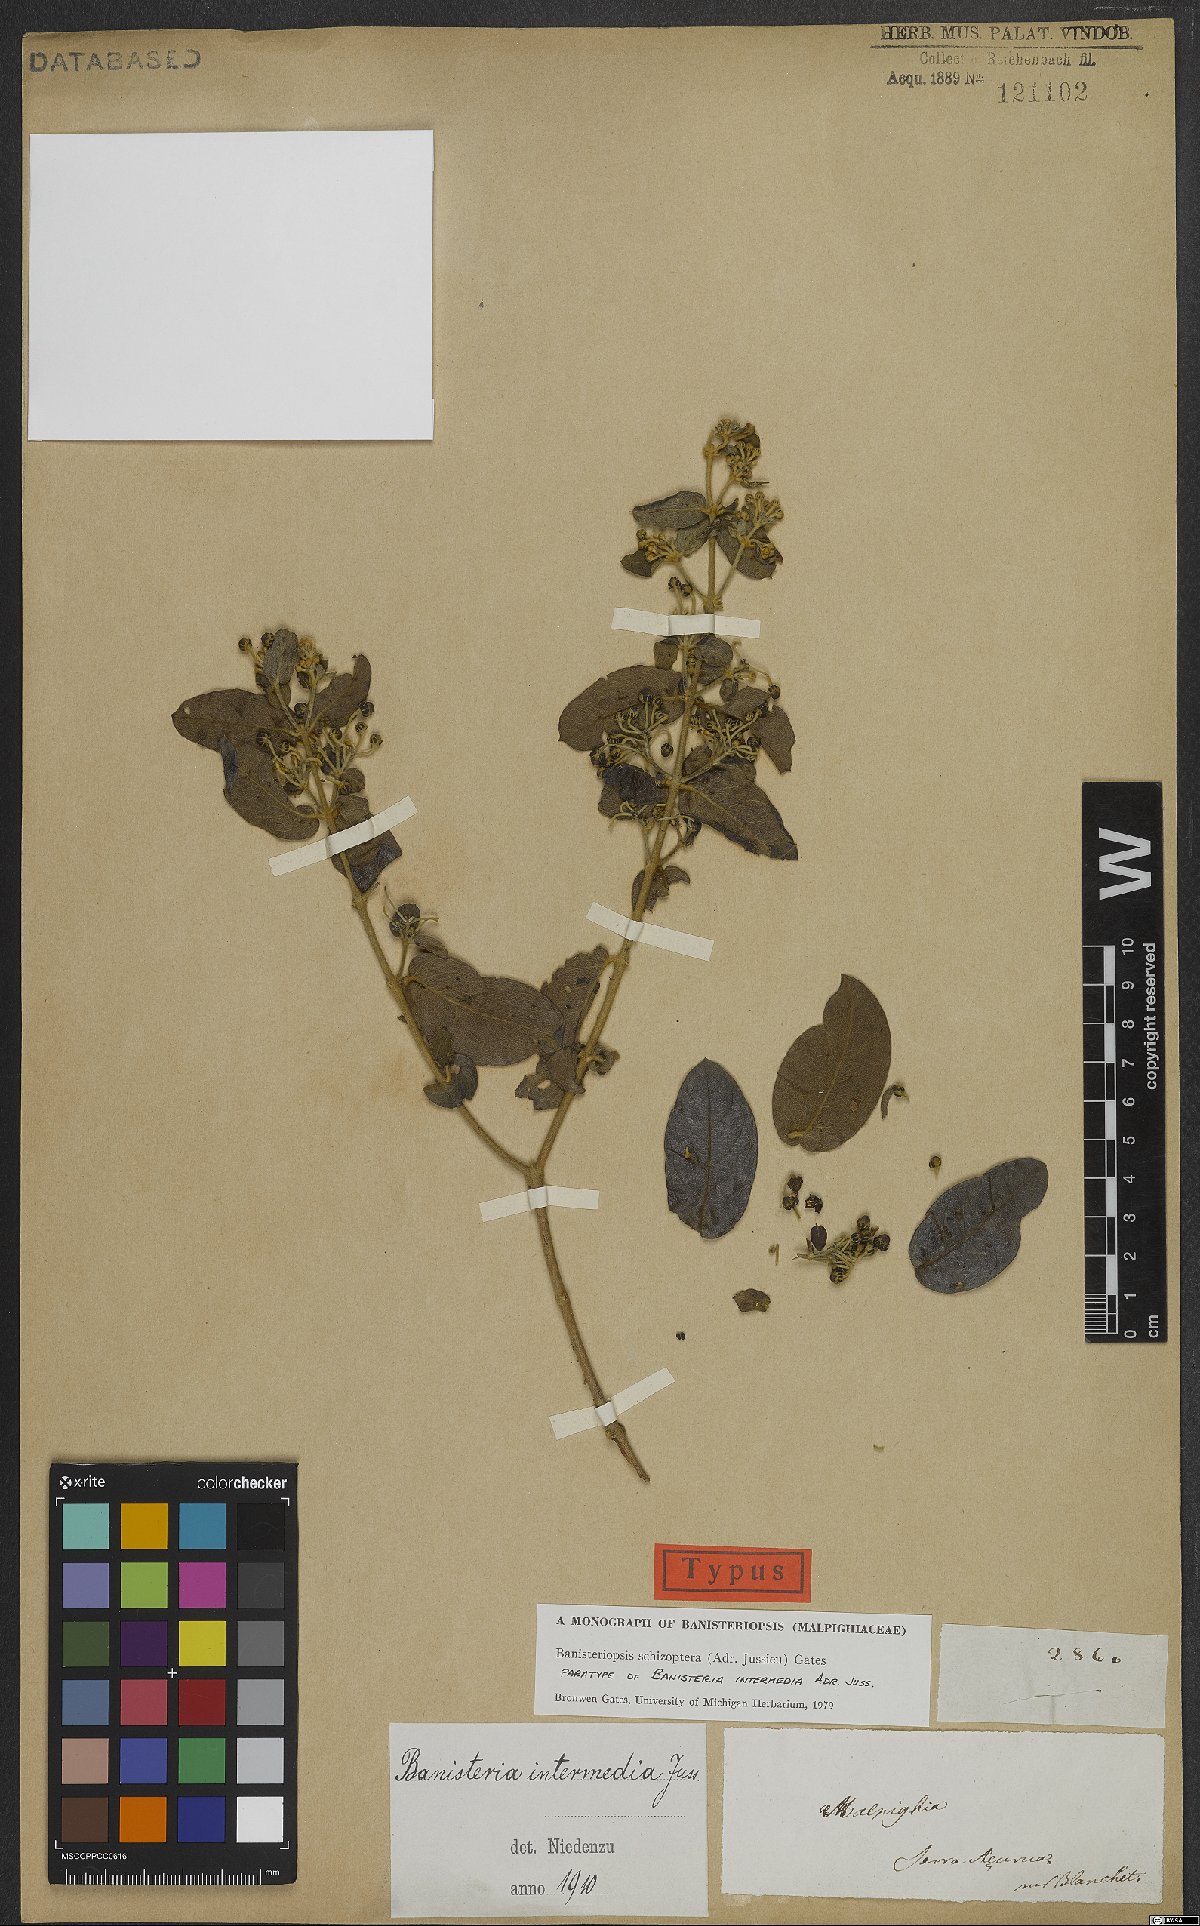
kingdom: Plantae
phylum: Tracheophyta
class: Magnoliopsida
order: Malpighiales
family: Malpighiaceae
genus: Banisteriopsis
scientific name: Banisteriopsis schizoptera
